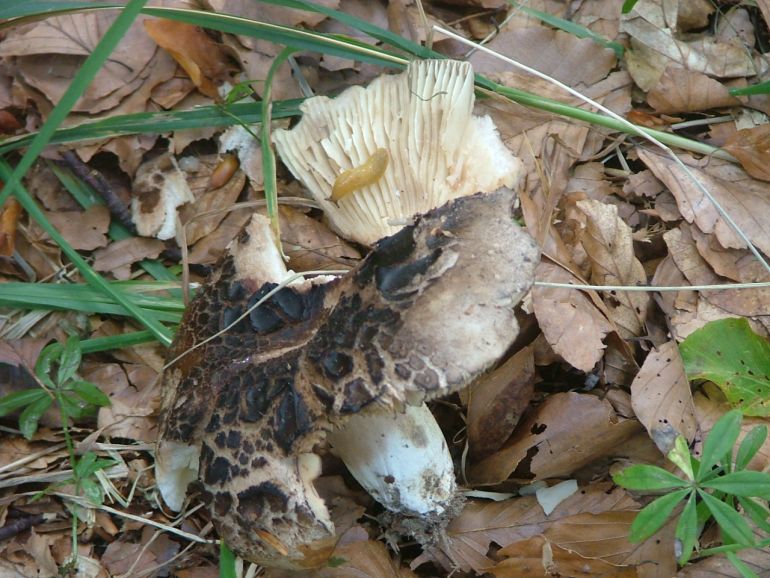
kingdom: Fungi
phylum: Basidiomycota
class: Agaricomycetes
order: Russulales
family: Russulaceae
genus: Russula
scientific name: Russula adusta
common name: sværtende skørhat
